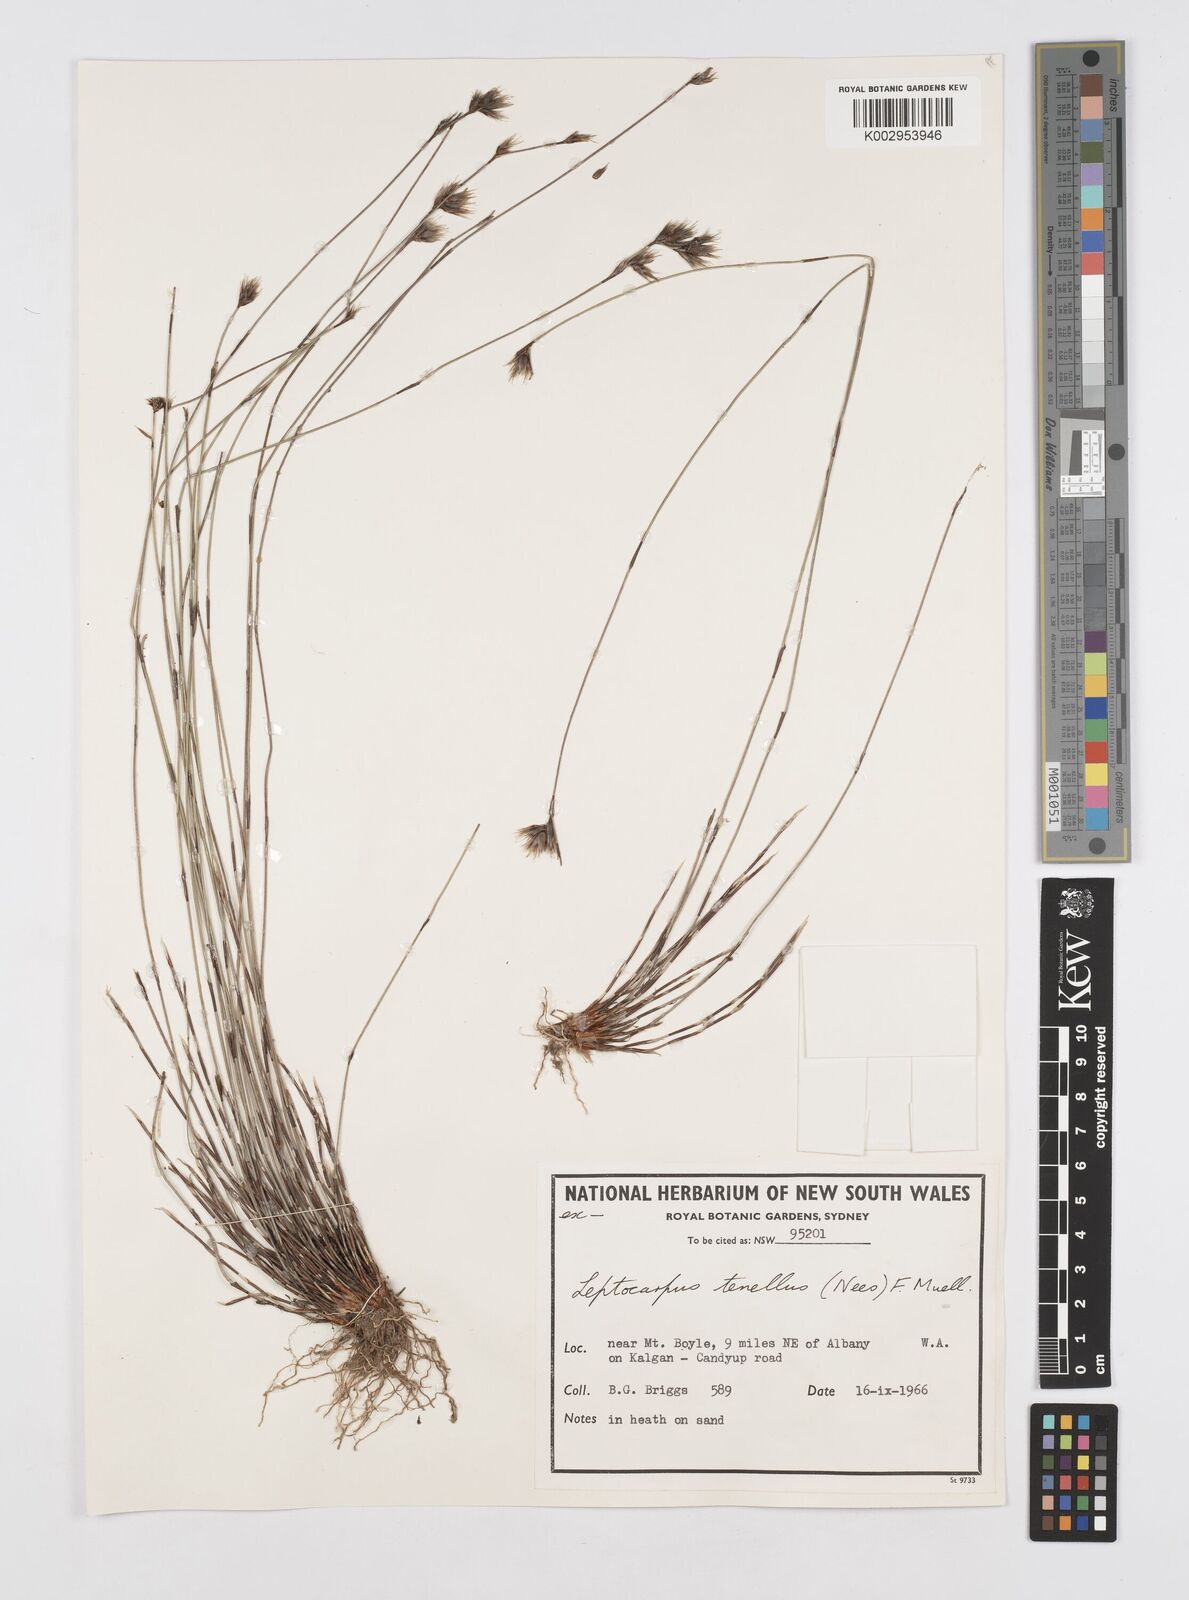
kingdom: Plantae
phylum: Tracheophyta
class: Liliopsida
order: Poales
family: Restionaceae
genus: Chaetanthus
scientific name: Chaetanthus tenellus
